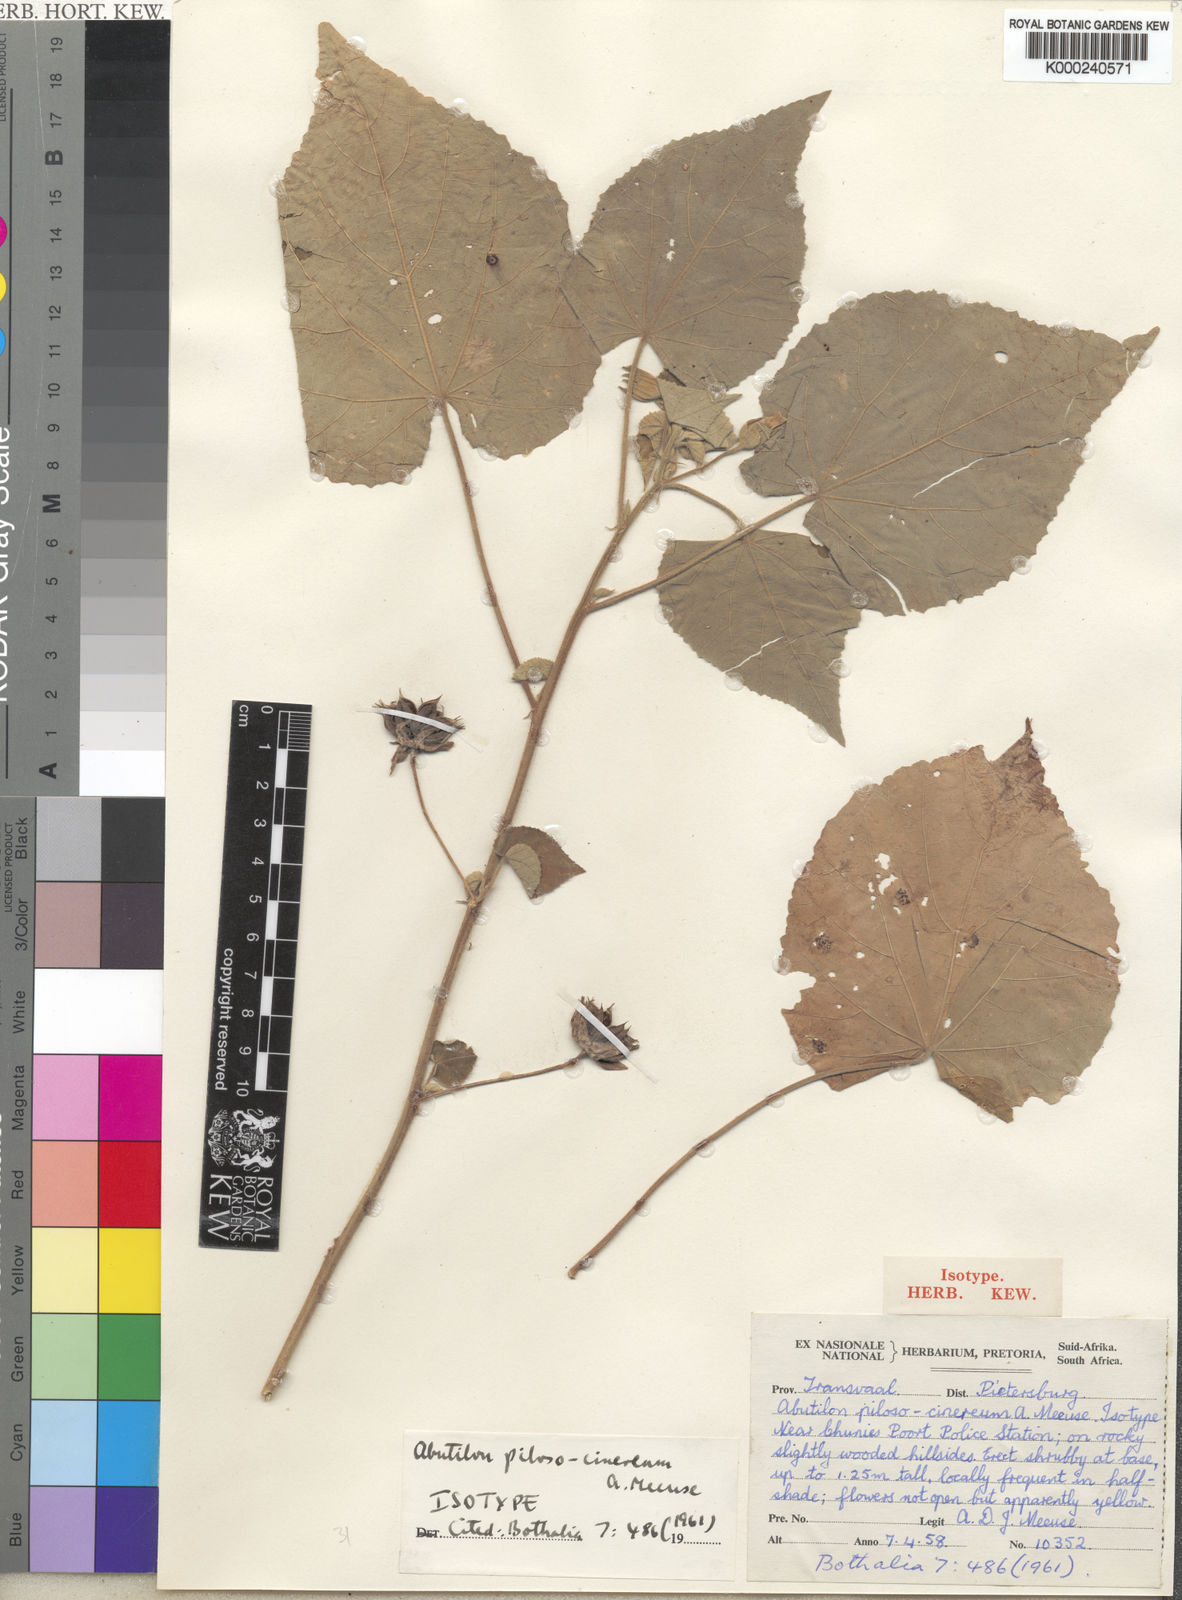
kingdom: Plantae
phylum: Tracheophyta
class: Magnoliopsida
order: Malvales
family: Malvaceae
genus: Abutilon
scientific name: Abutilon pilosocinereum
